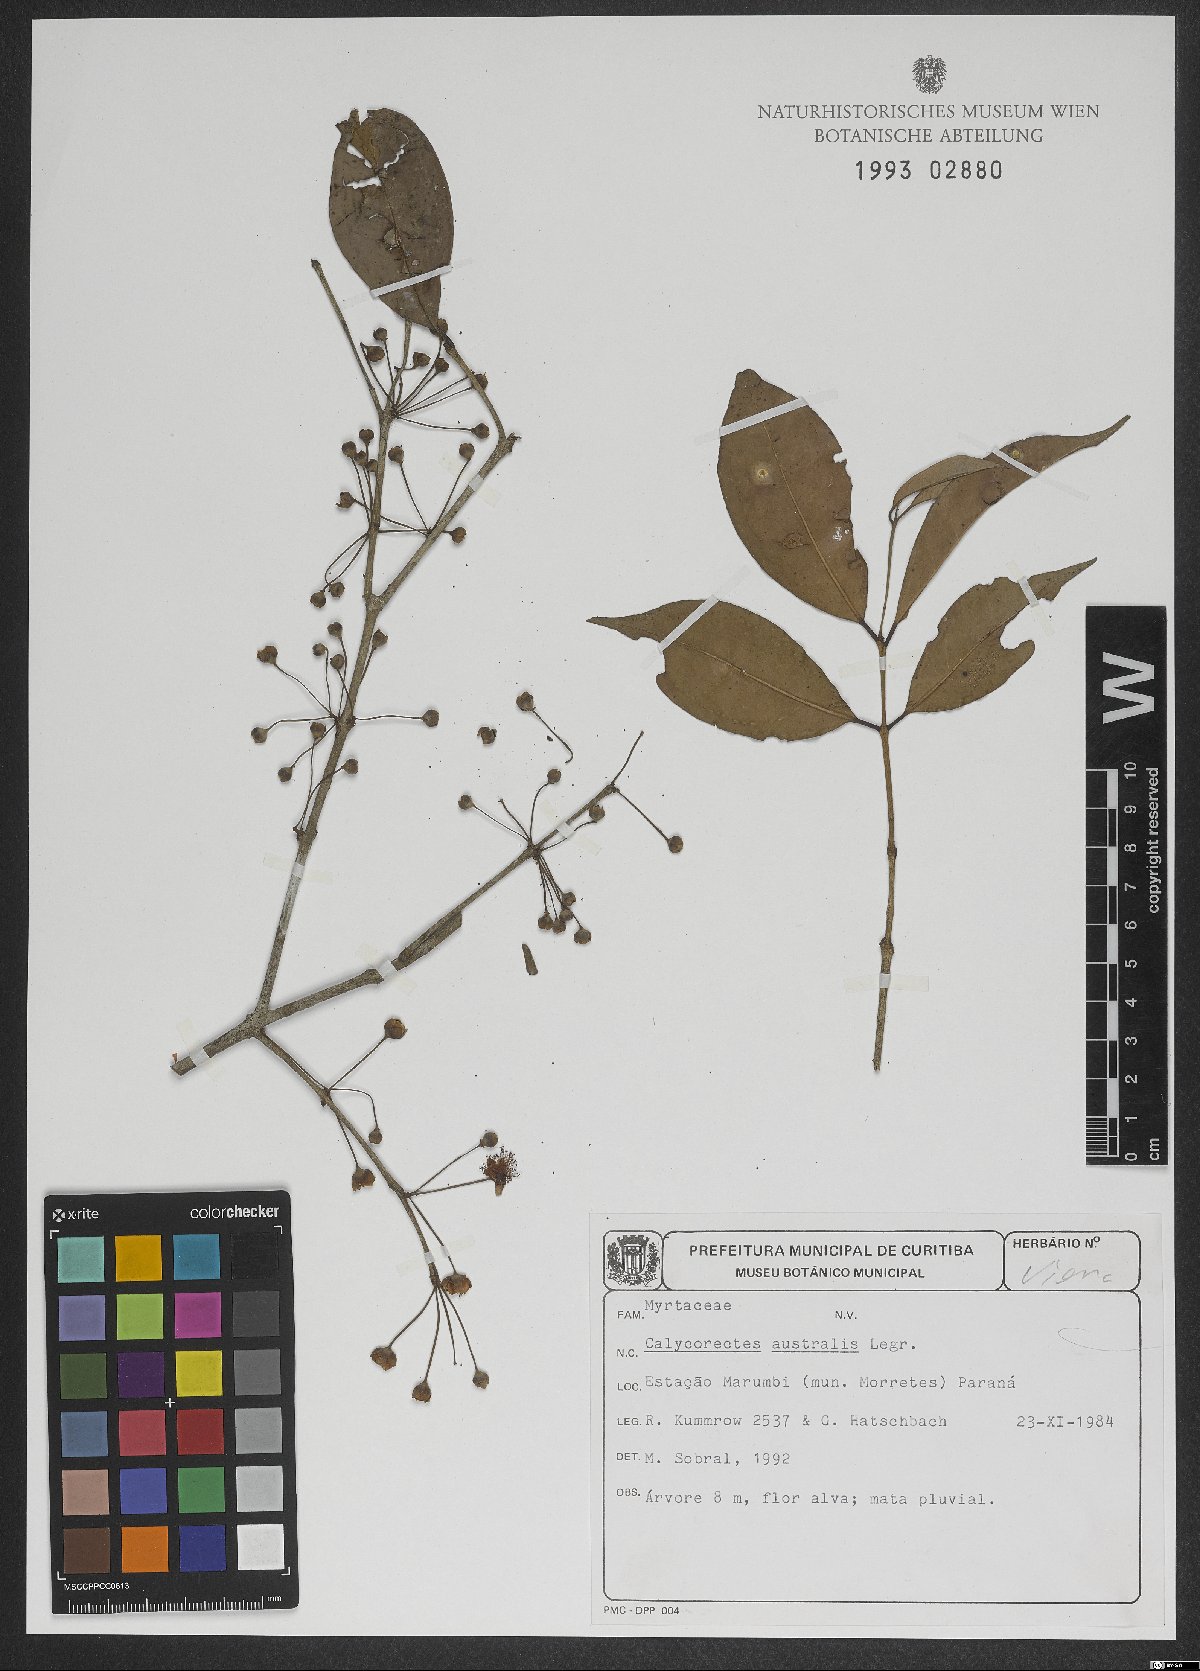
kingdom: Plantae
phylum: Tracheophyta
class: Magnoliopsida
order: Myrtales
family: Myrtaceae
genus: Eugenia
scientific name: Eugenia brevistyla
